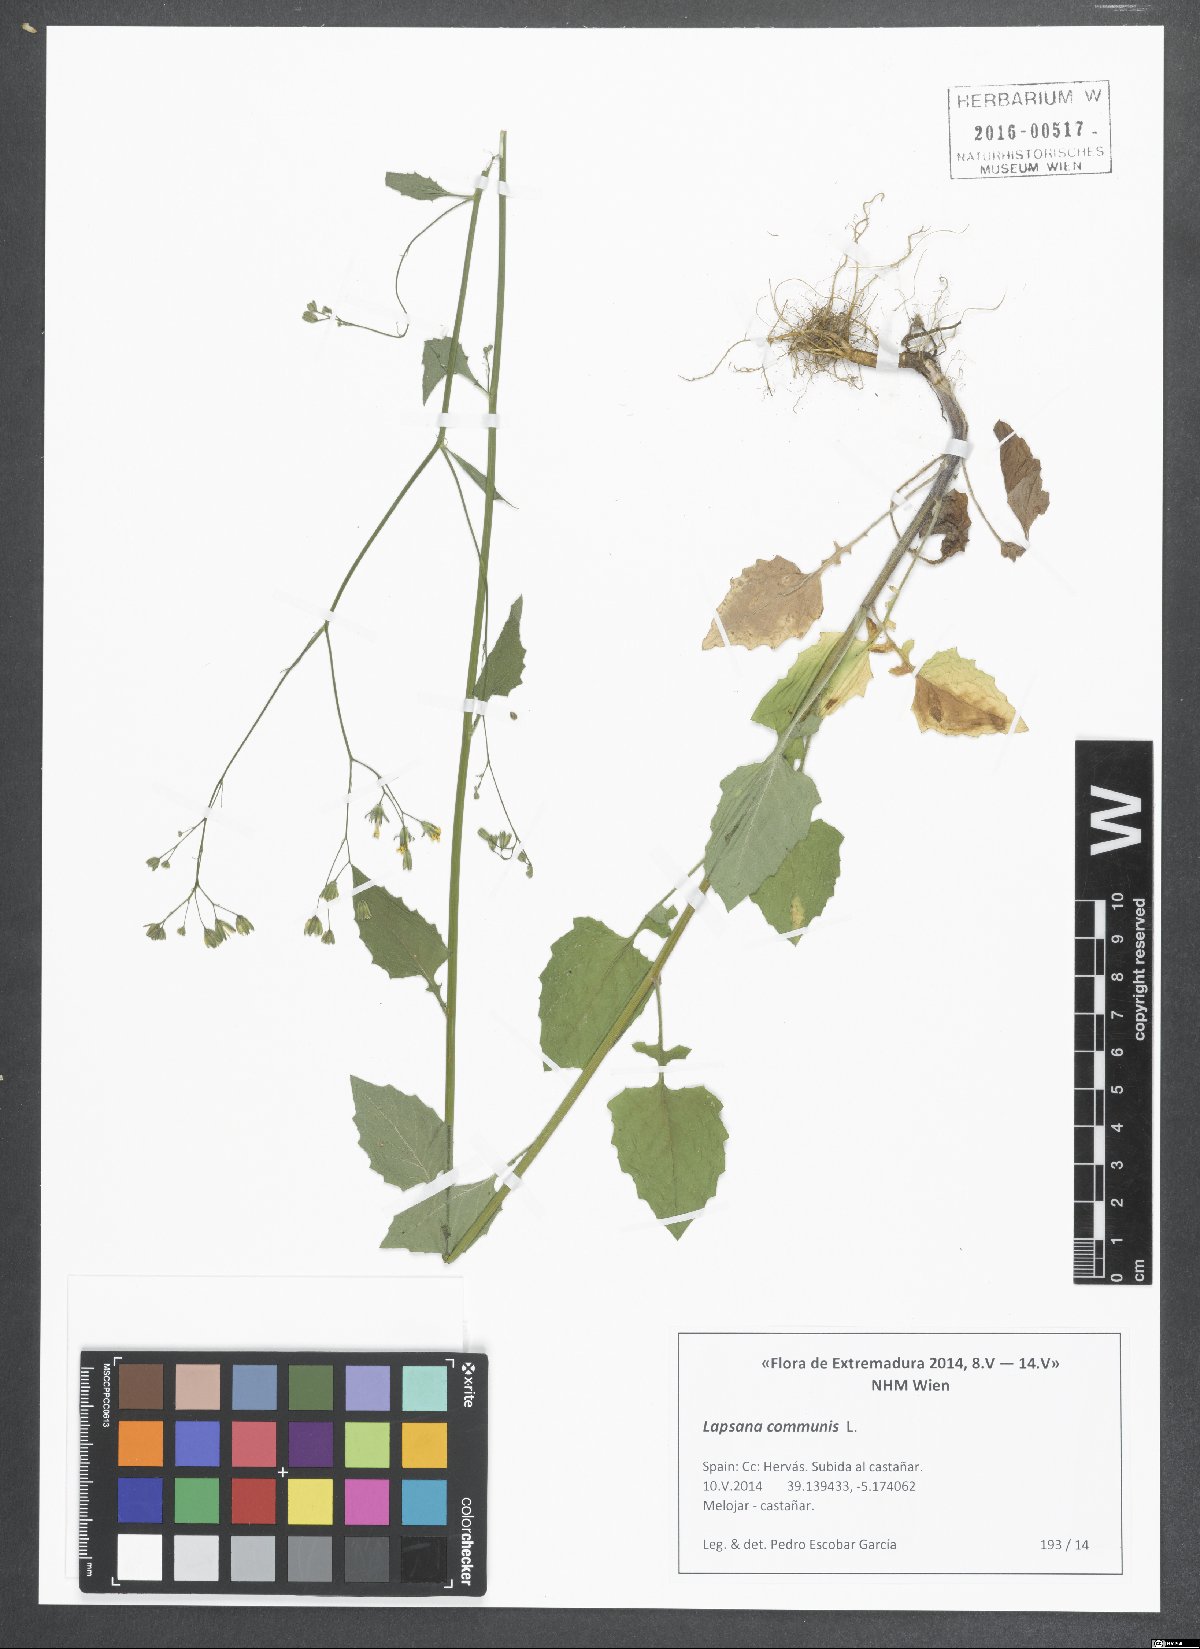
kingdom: Plantae
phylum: Tracheophyta
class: Magnoliopsida
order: Asterales
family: Asteraceae
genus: Lapsana
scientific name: Lapsana communis
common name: Nipplewort
